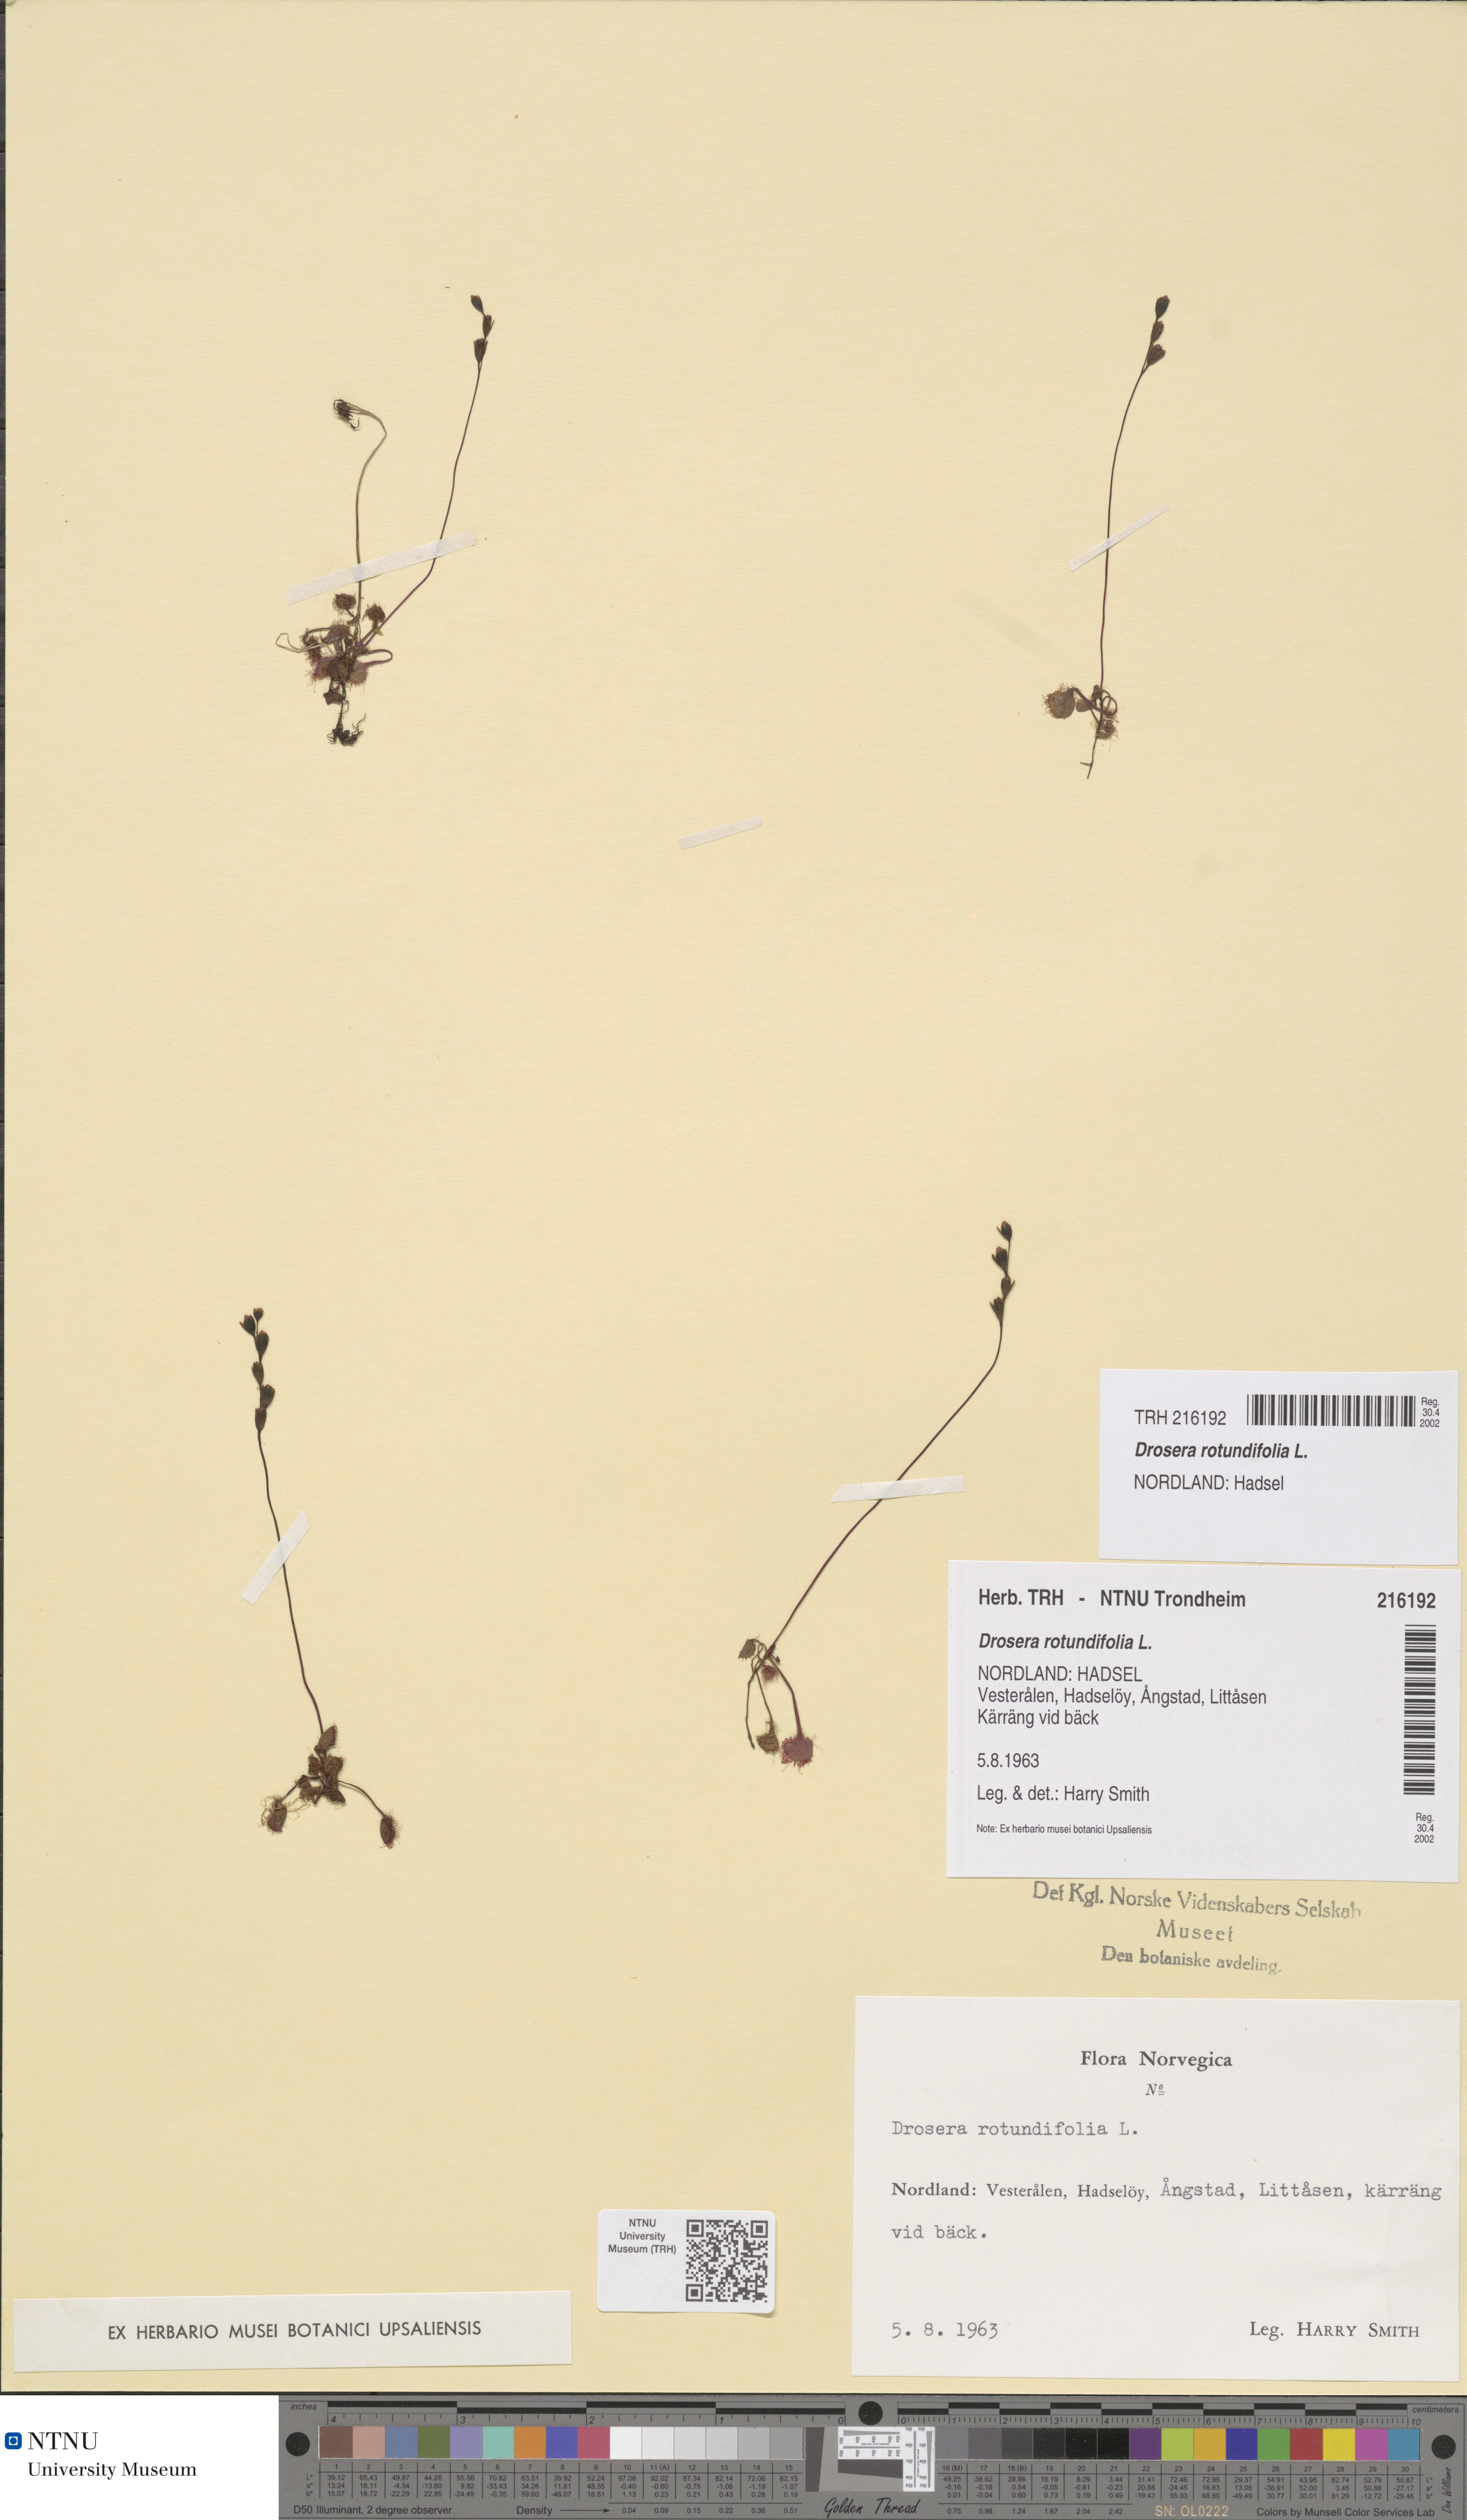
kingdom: Plantae
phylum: Tracheophyta
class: Magnoliopsida
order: Caryophyllales
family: Droseraceae
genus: Drosera
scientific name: Drosera rotundifolia
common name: Round-leaved sundew
